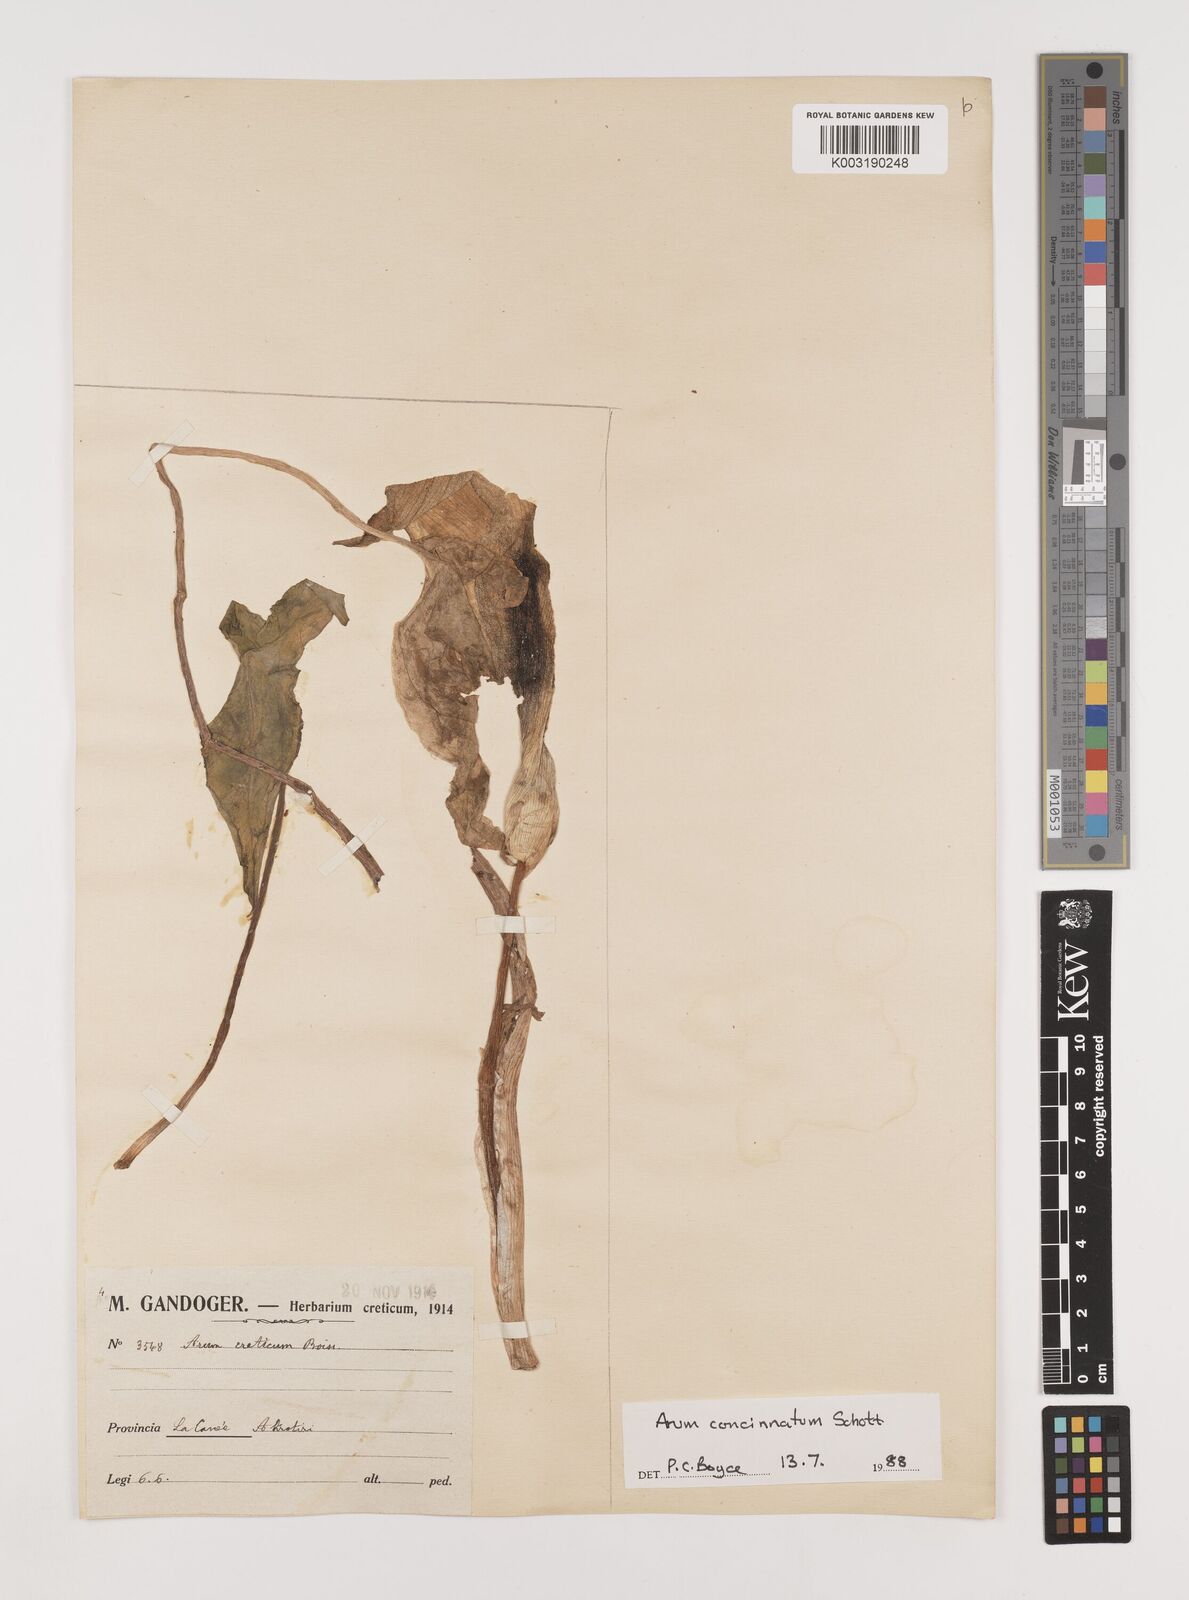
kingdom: Plantae
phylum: Tracheophyta
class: Liliopsida
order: Alismatales
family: Araceae
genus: Arum
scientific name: Arum concinnatum
